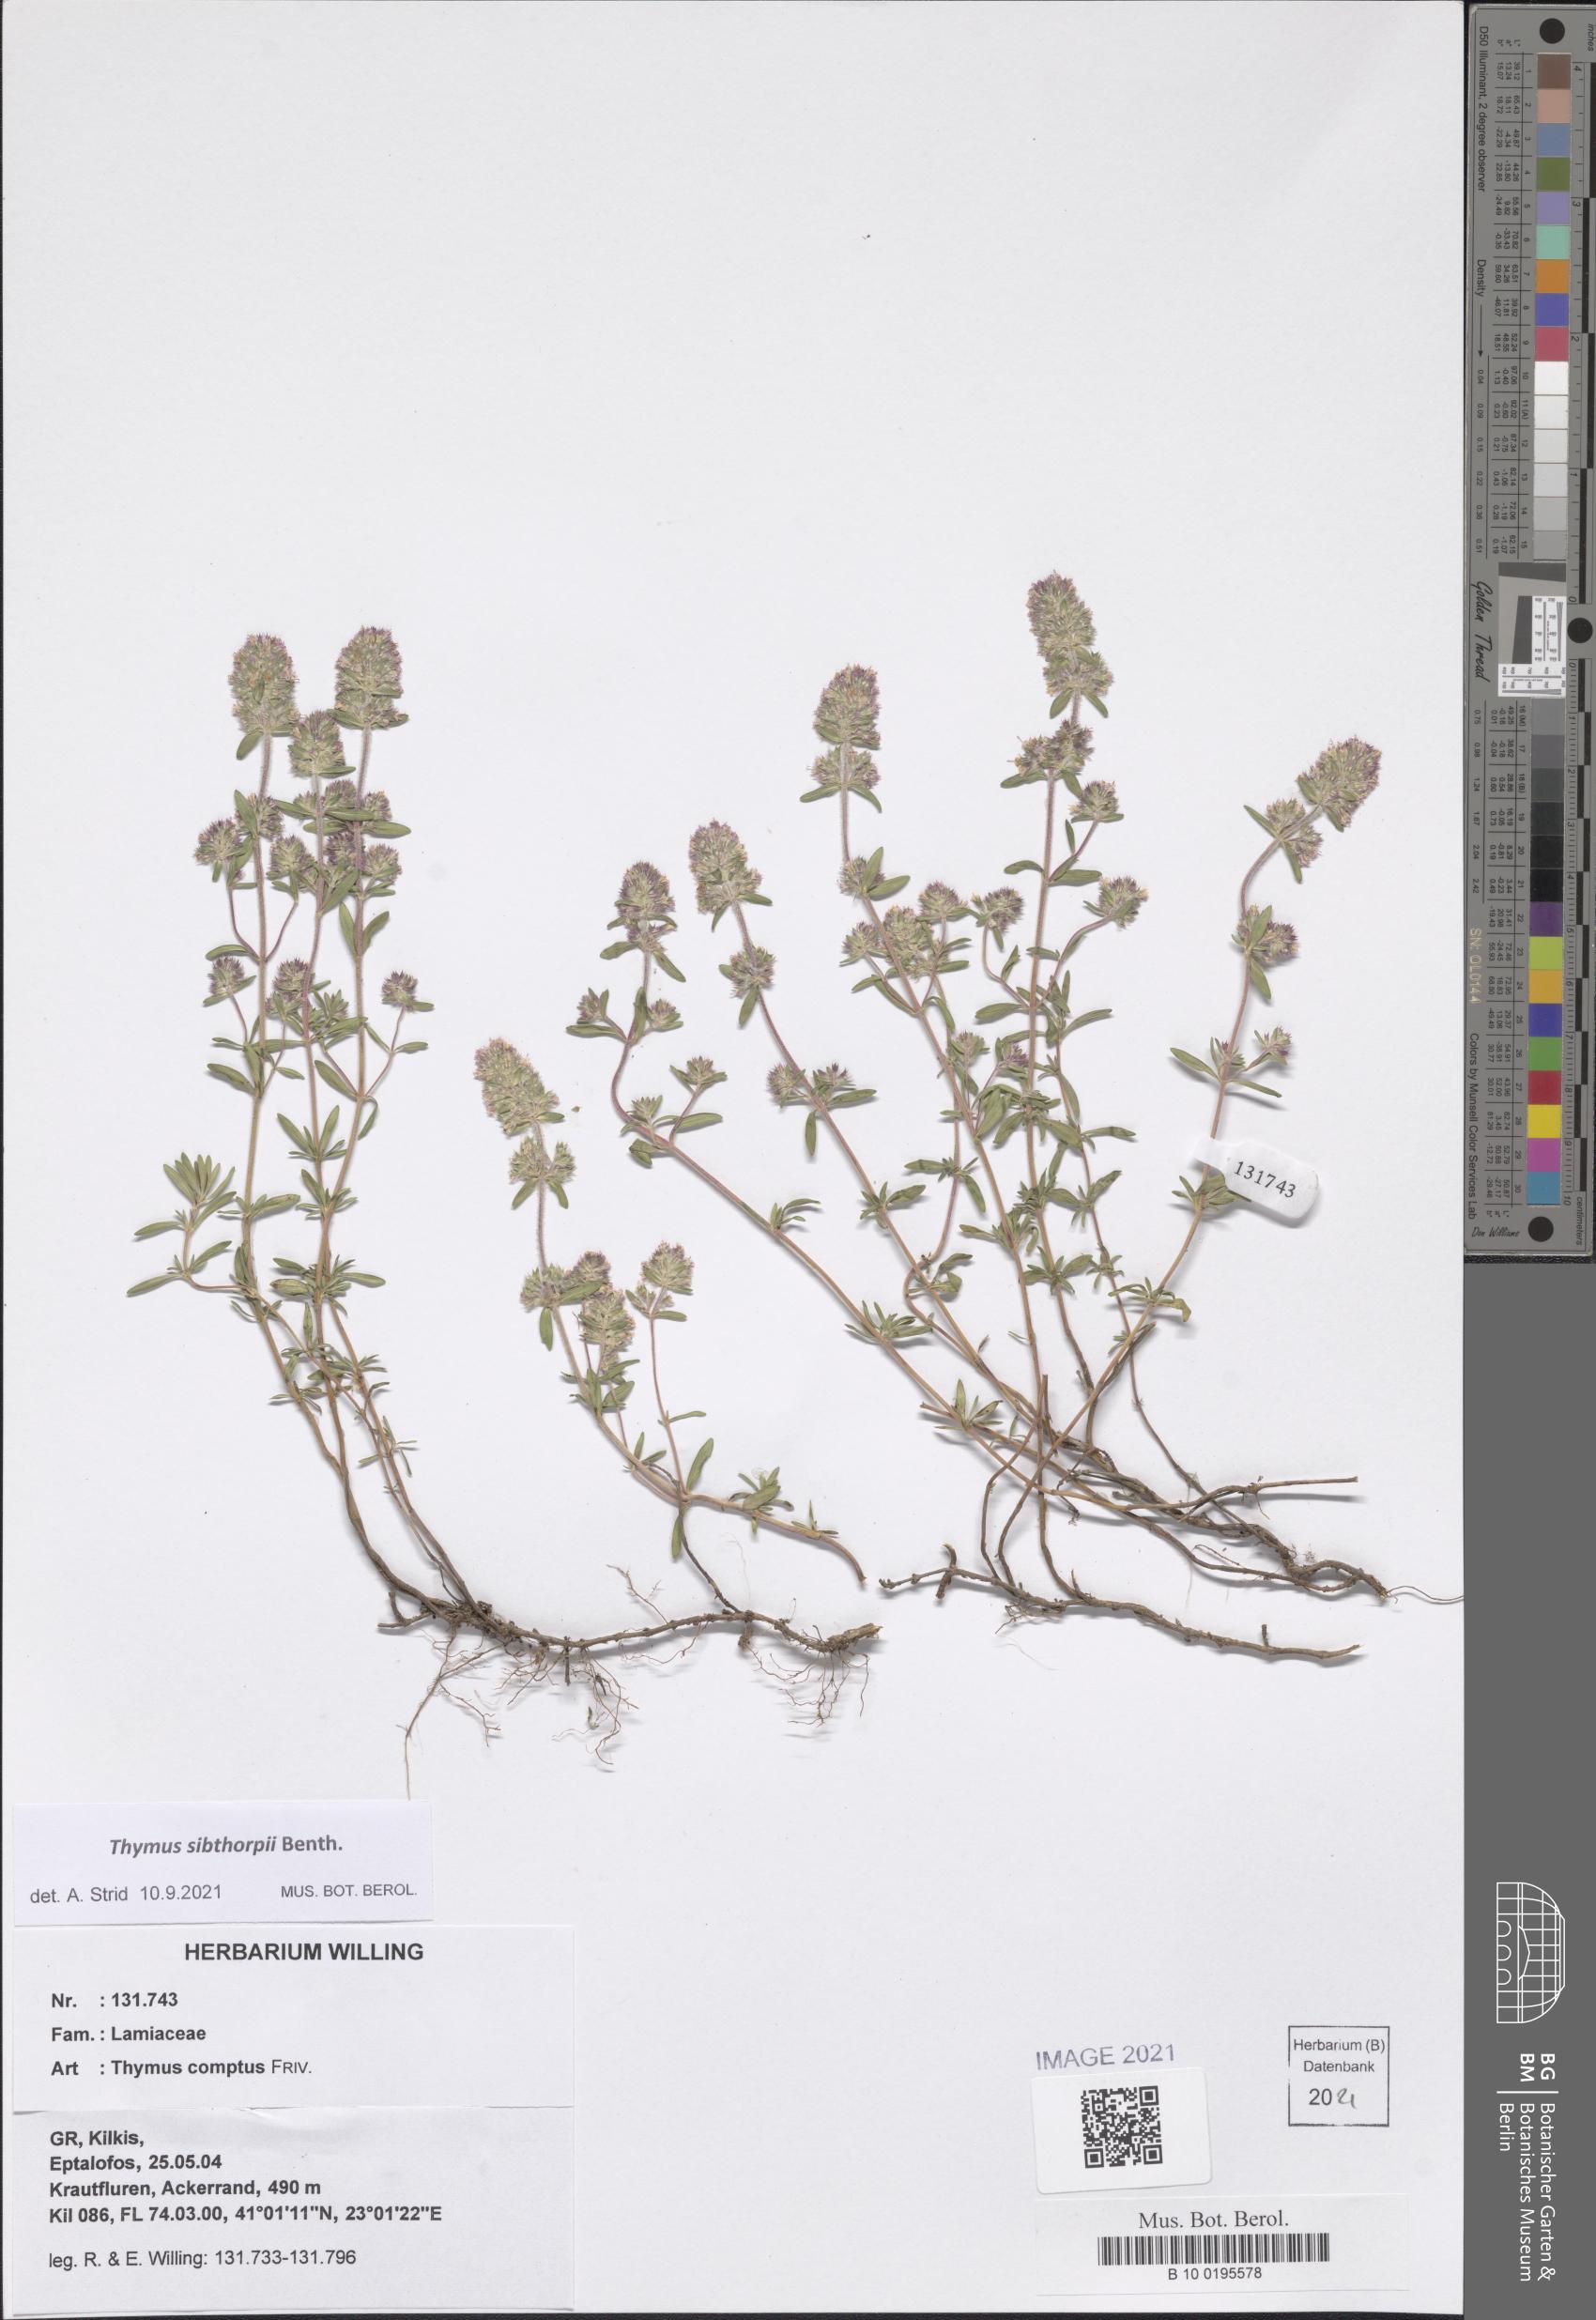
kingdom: Plantae
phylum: Tracheophyta
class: Magnoliopsida
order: Lamiales
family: Lamiaceae
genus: Thymus
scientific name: Thymus sibthorpii
